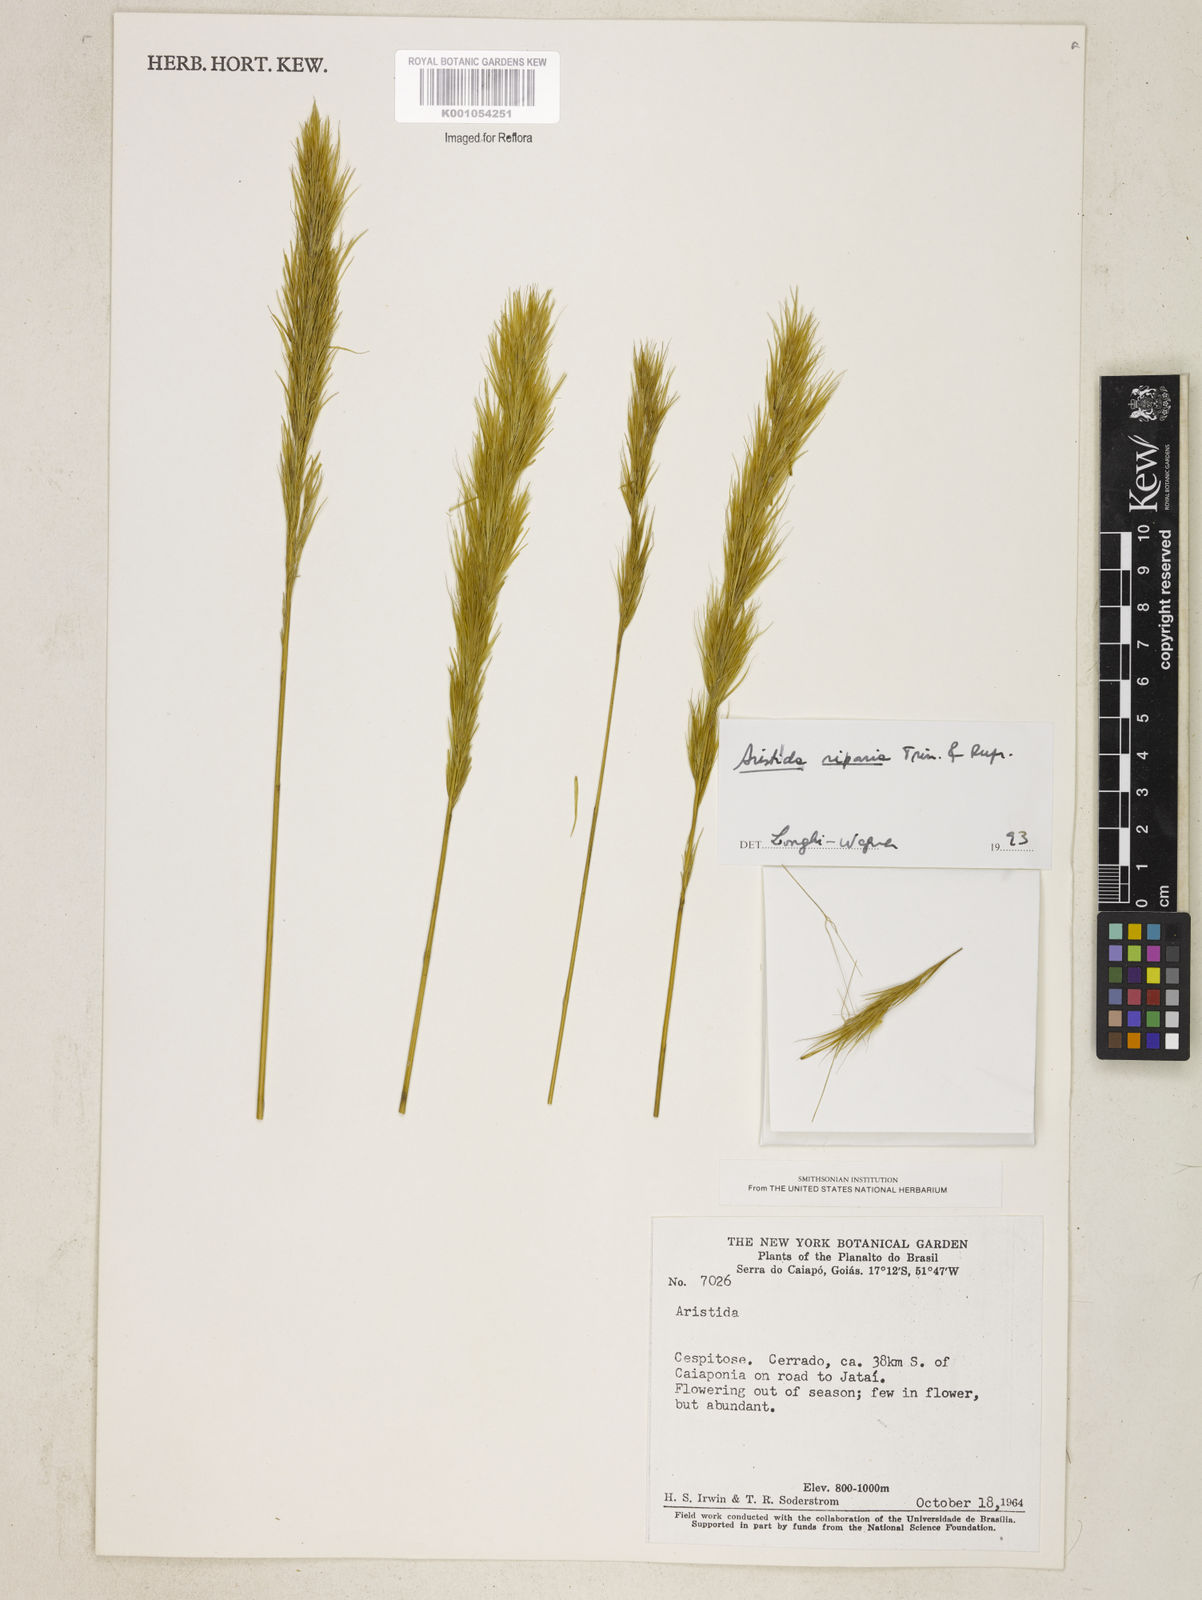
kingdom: Plantae
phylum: Tracheophyta
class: Liliopsida
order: Poales
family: Poaceae
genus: Aristida
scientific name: Aristida riparia
